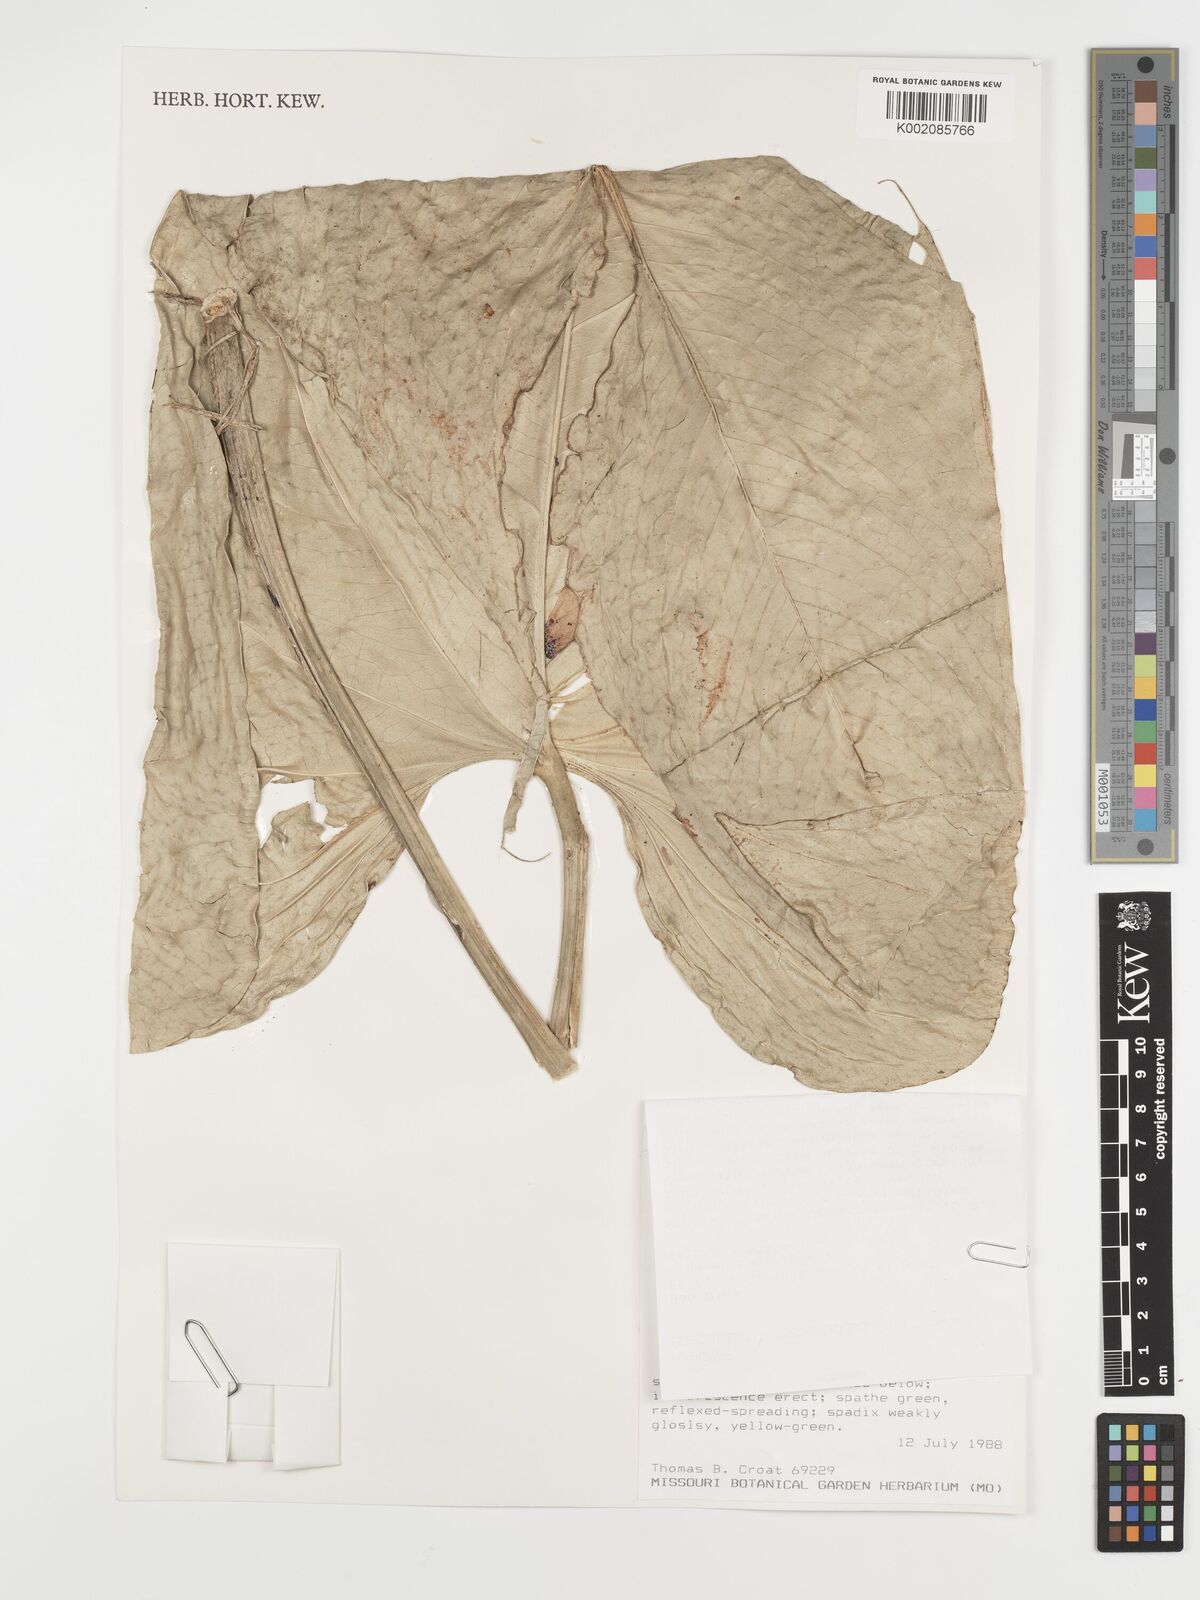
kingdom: Plantae
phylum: Tracheophyta
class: Liliopsida
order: Alismatales
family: Araceae
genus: Anthurium
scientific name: Anthurium cinereopetiolatum
